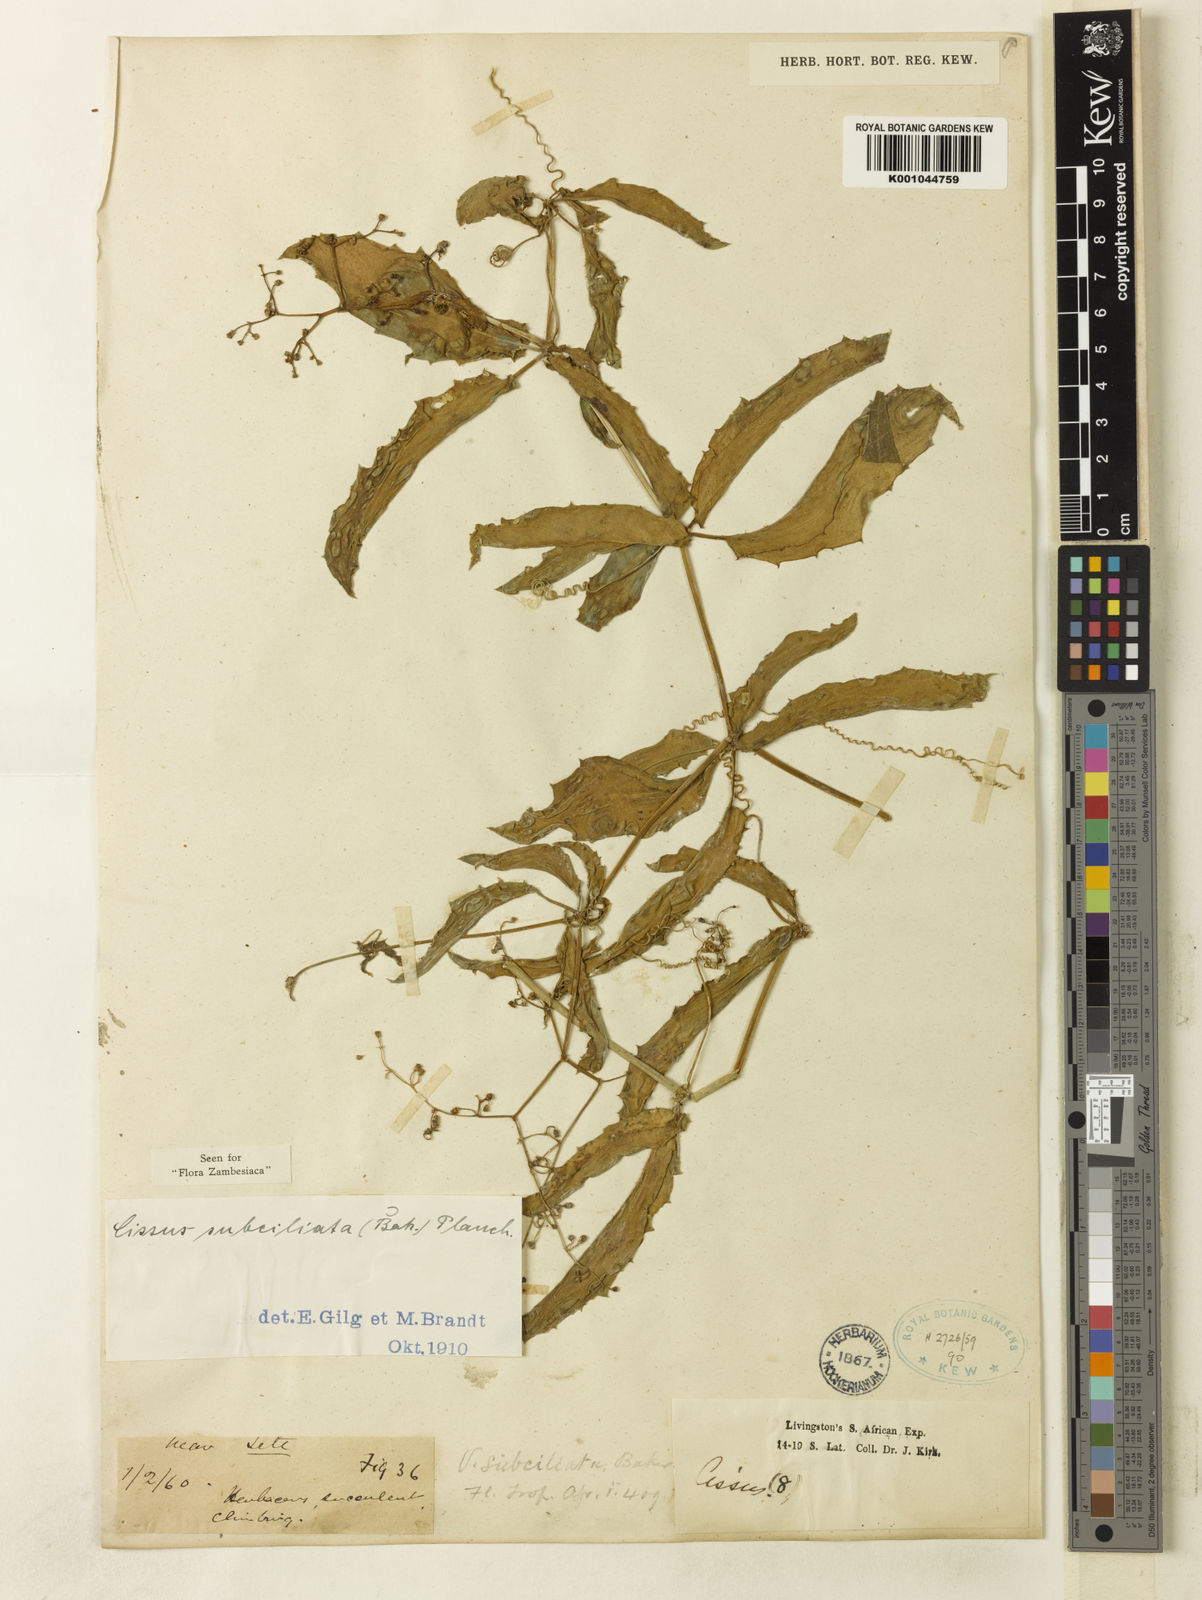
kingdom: Plantae
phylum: Tracheophyta
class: Magnoliopsida
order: Vitales
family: Vitaceae
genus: Cyphostemma
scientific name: Cyphostemma
